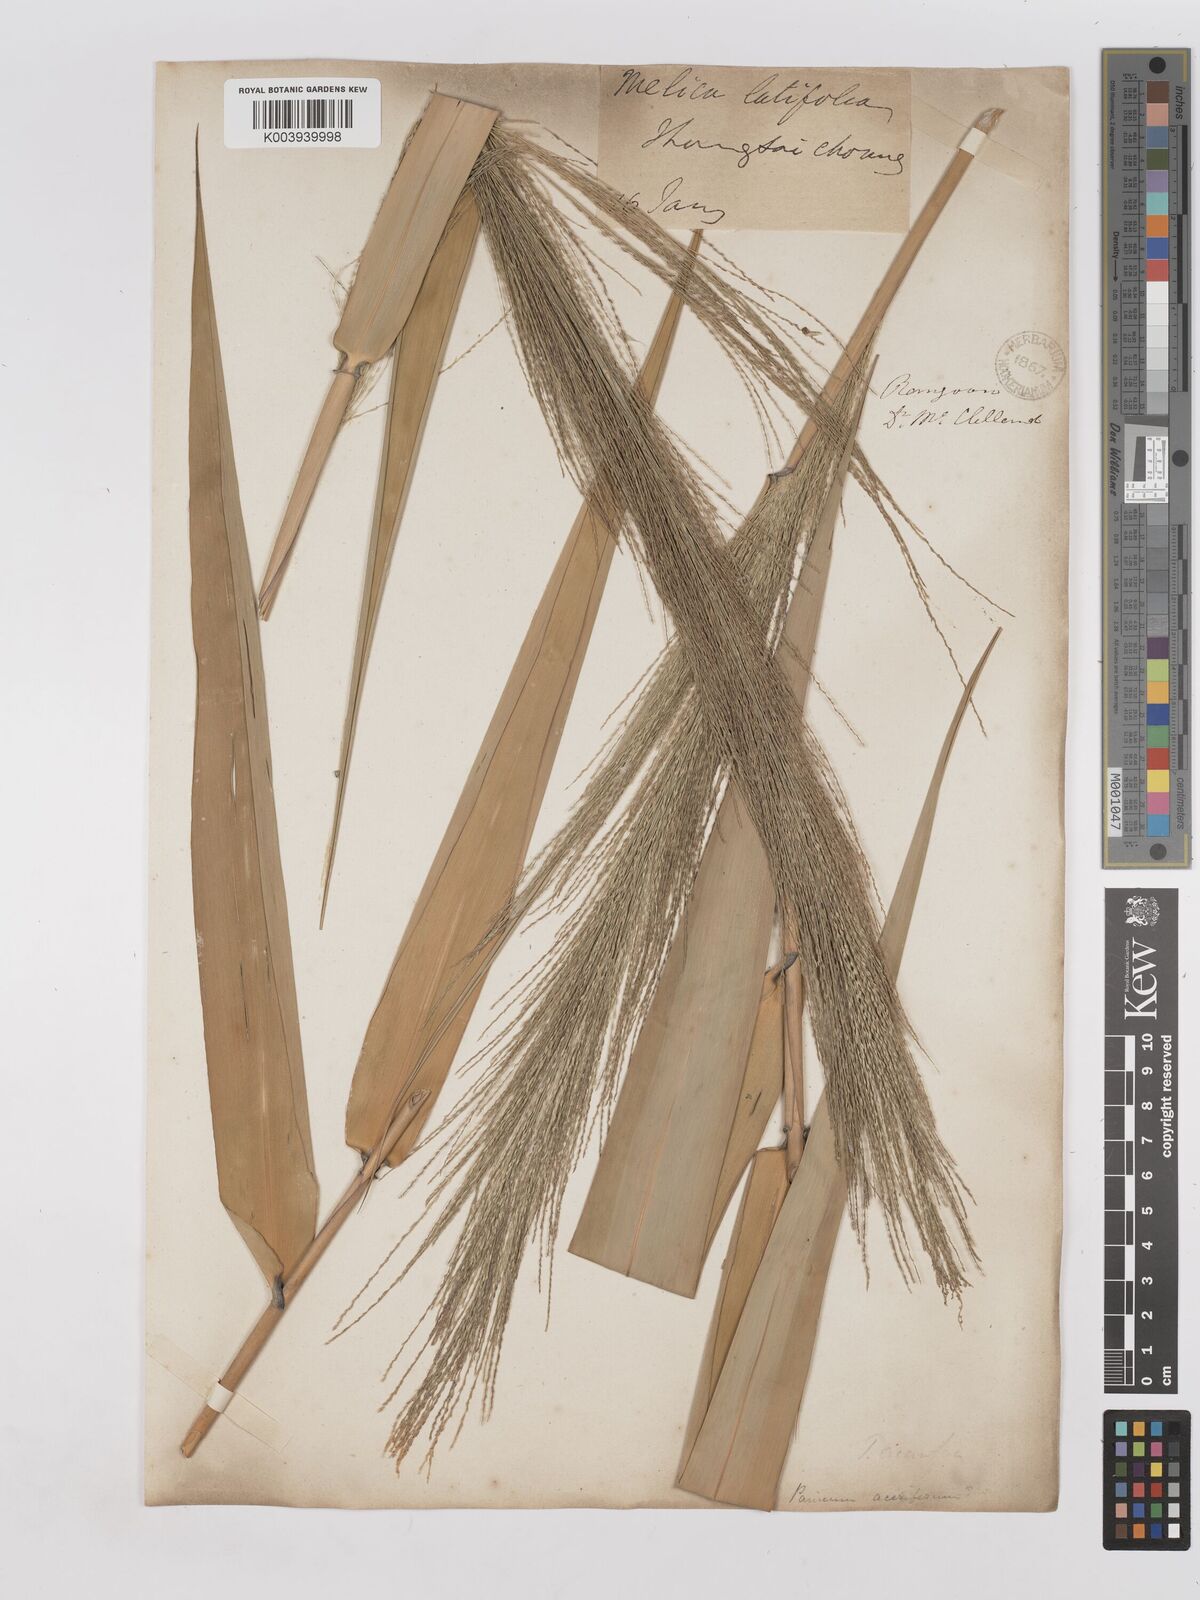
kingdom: Plantae
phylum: Tracheophyta
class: Liliopsida
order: Poales
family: Poaceae
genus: Thysanolaena
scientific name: Thysanolaena latifolia
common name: Tiger grass
